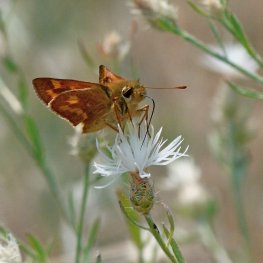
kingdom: Animalia
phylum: Arthropoda
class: Insecta
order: Lepidoptera
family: Hesperiidae
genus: Ochlodes
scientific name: Ochlodes sylvanoides
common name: Woodland Skipper
